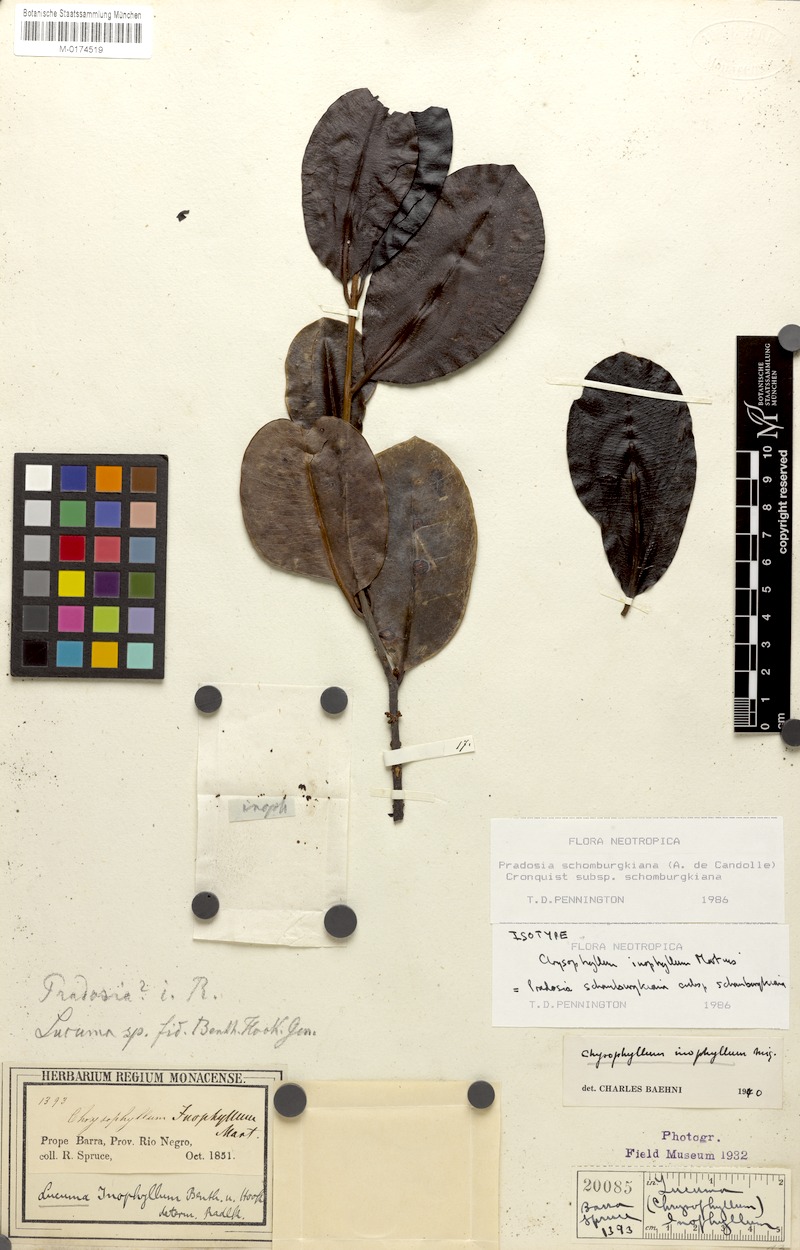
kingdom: Plantae
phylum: Tracheophyta
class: Magnoliopsida
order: Ericales
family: Sapotaceae
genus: Pradosia
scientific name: Pradosia schomburgkiana
